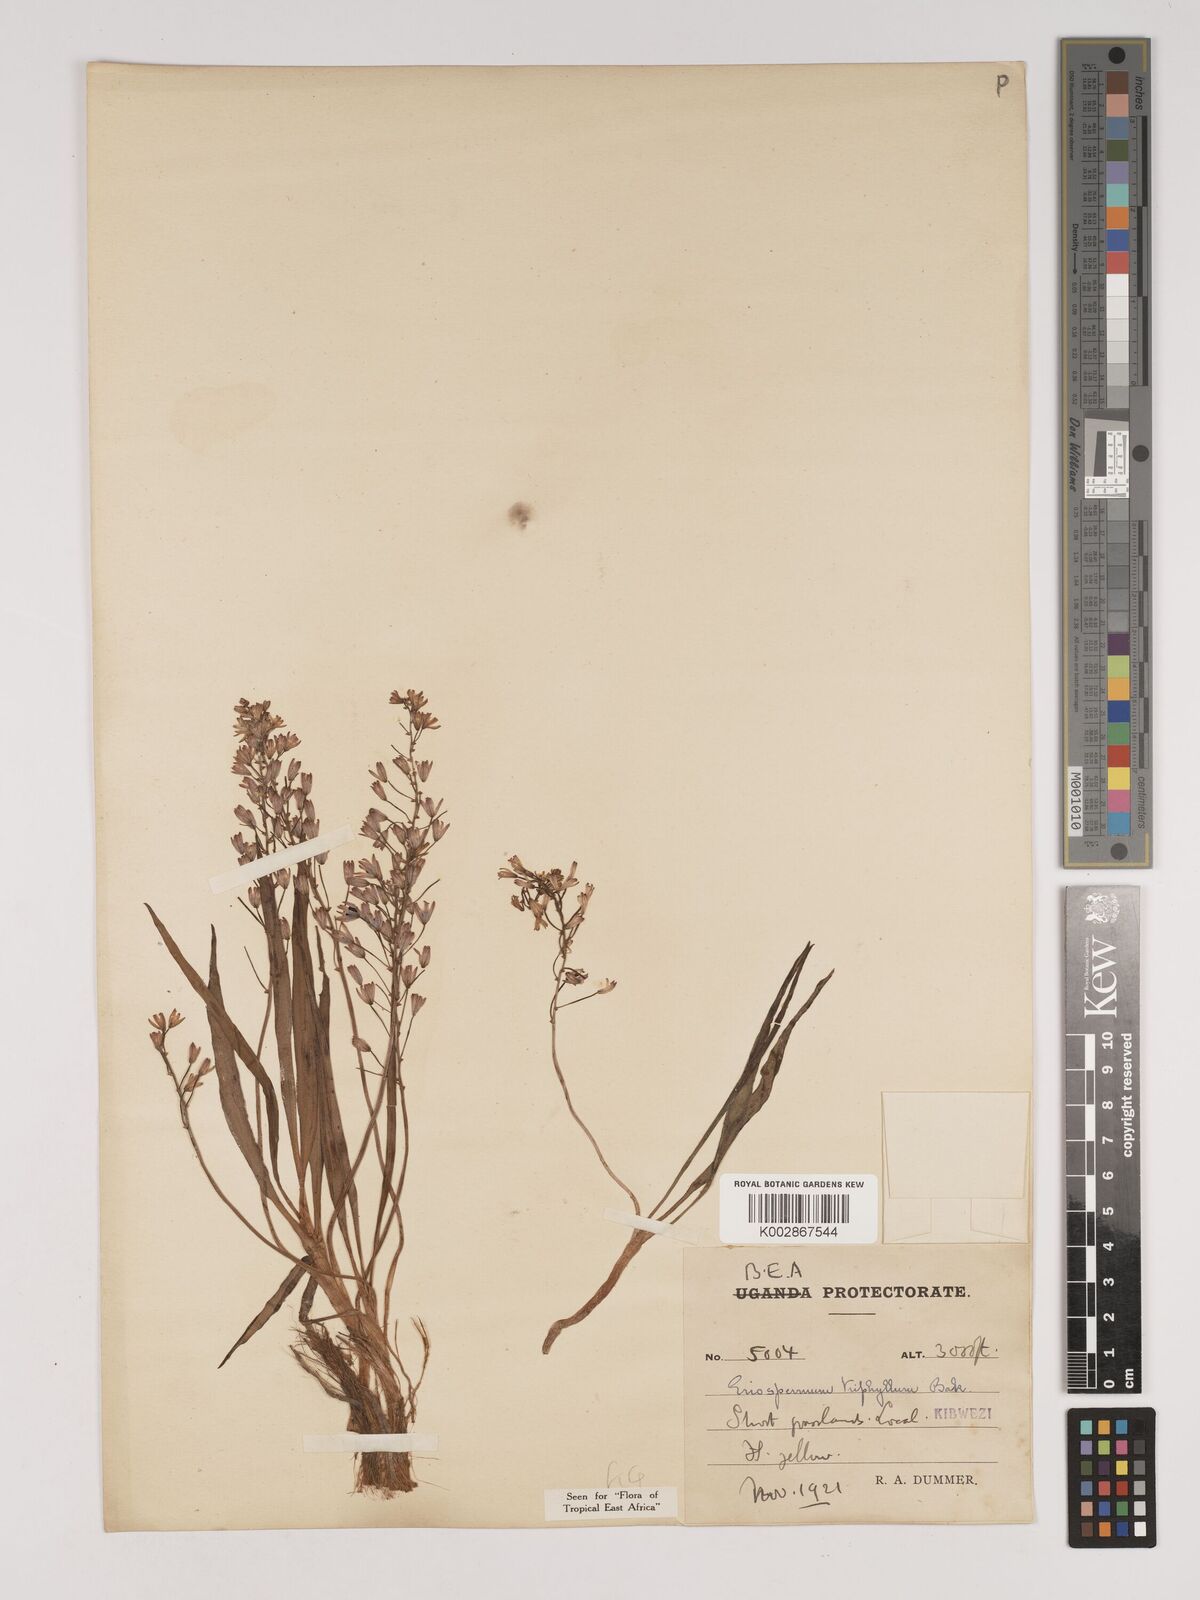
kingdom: Plantae
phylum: Tracheophyta
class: Liliopsida
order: Asparagales
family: Asparagaceae
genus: Eriospermum
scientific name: Eriospermum triphyllum
